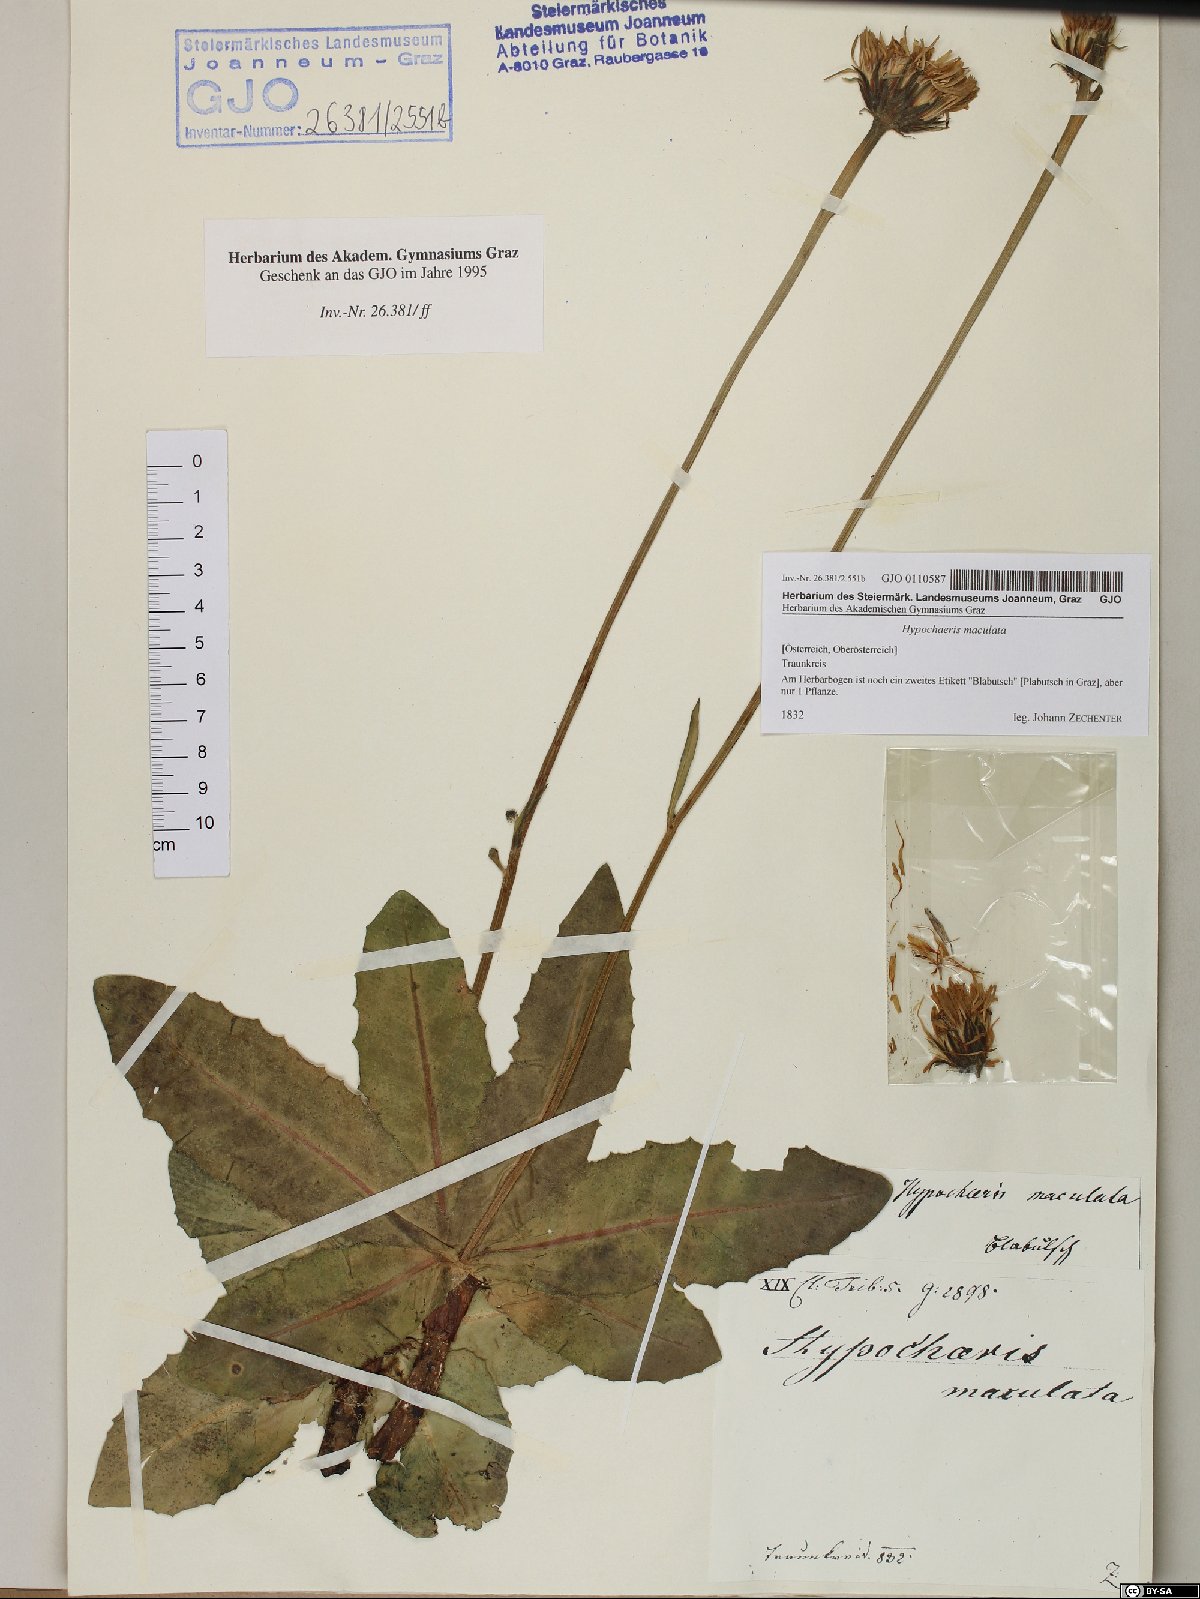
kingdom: Plantae
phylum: Tracheophyta
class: Magnoliopsida
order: Asterales
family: Asteraceae
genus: Trommsdorffia
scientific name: Trommsdorffia maculata
